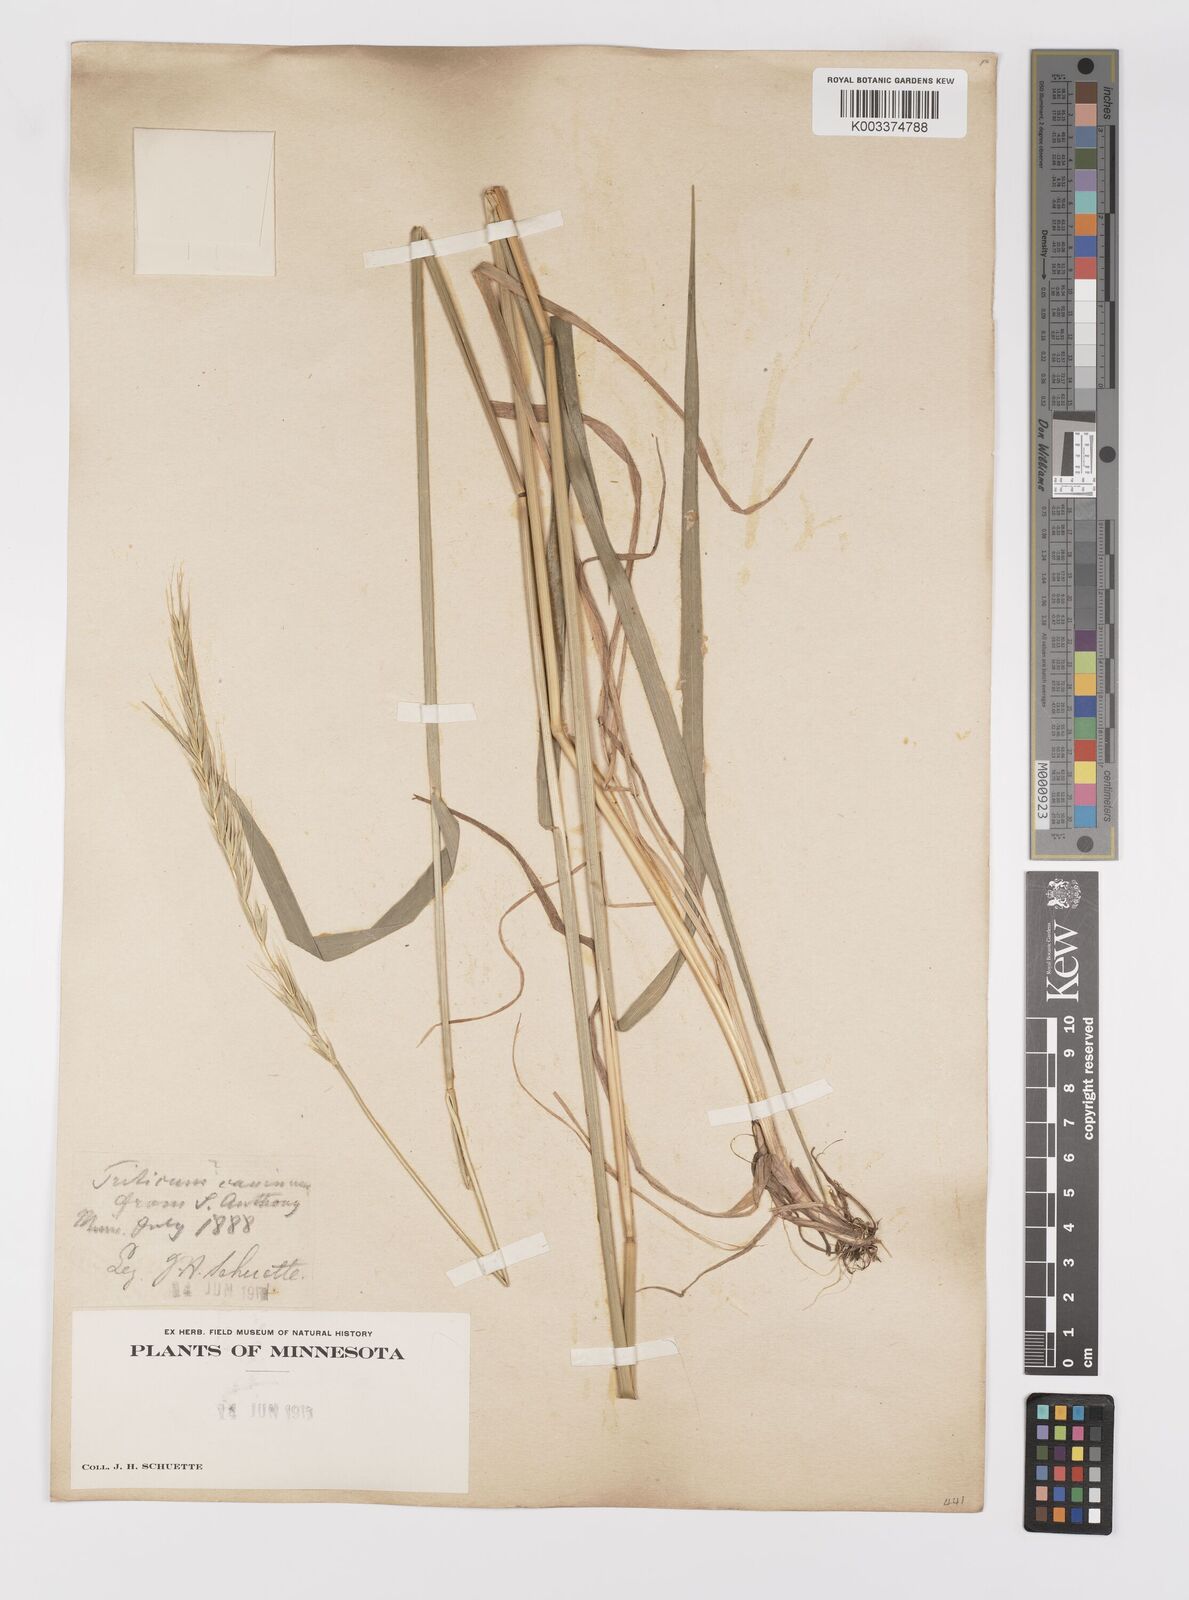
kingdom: Plantae
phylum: Tracheophyta
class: Liliopsida
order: Poales
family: Poaceae
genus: Elymus
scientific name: Elymus violaceus
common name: Arctic wheatgrass
